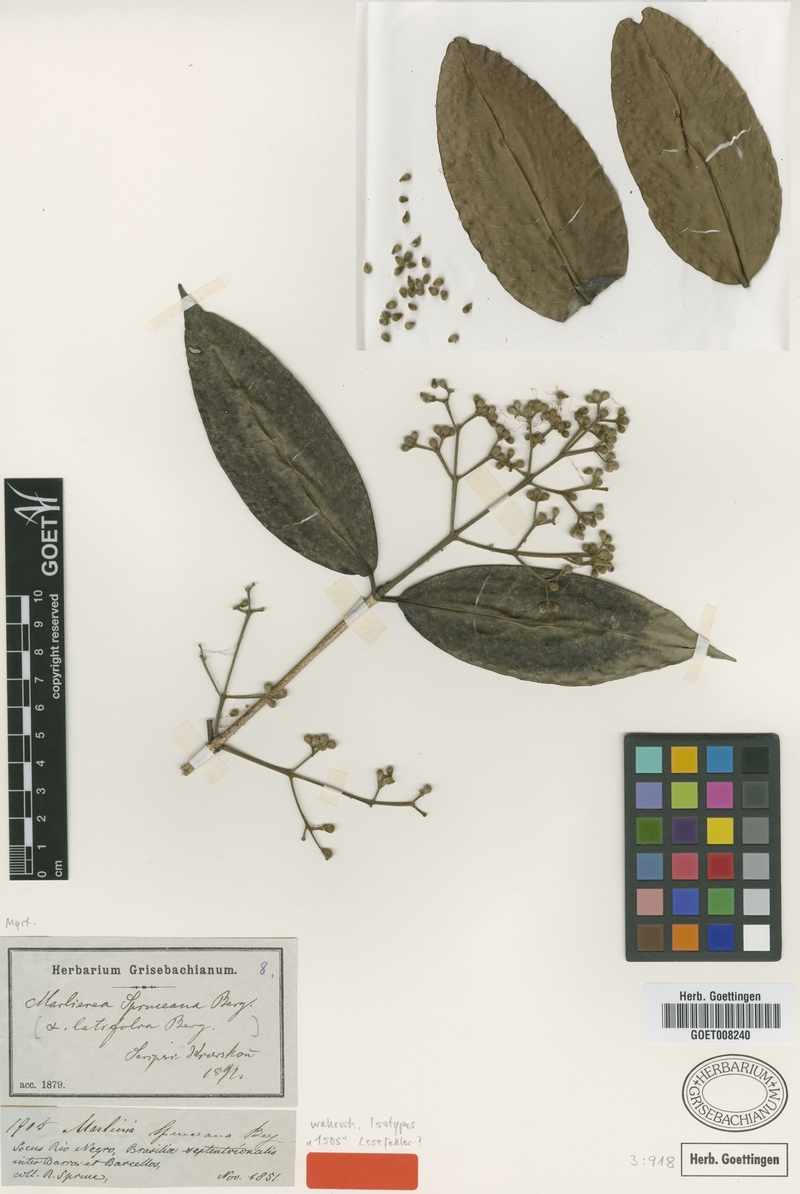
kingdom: Plantae
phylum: Tracheophyta
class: Magnoliopsida
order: Myrtales
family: Myrtaceae
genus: Myrcia
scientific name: Myrcia argentigemma
